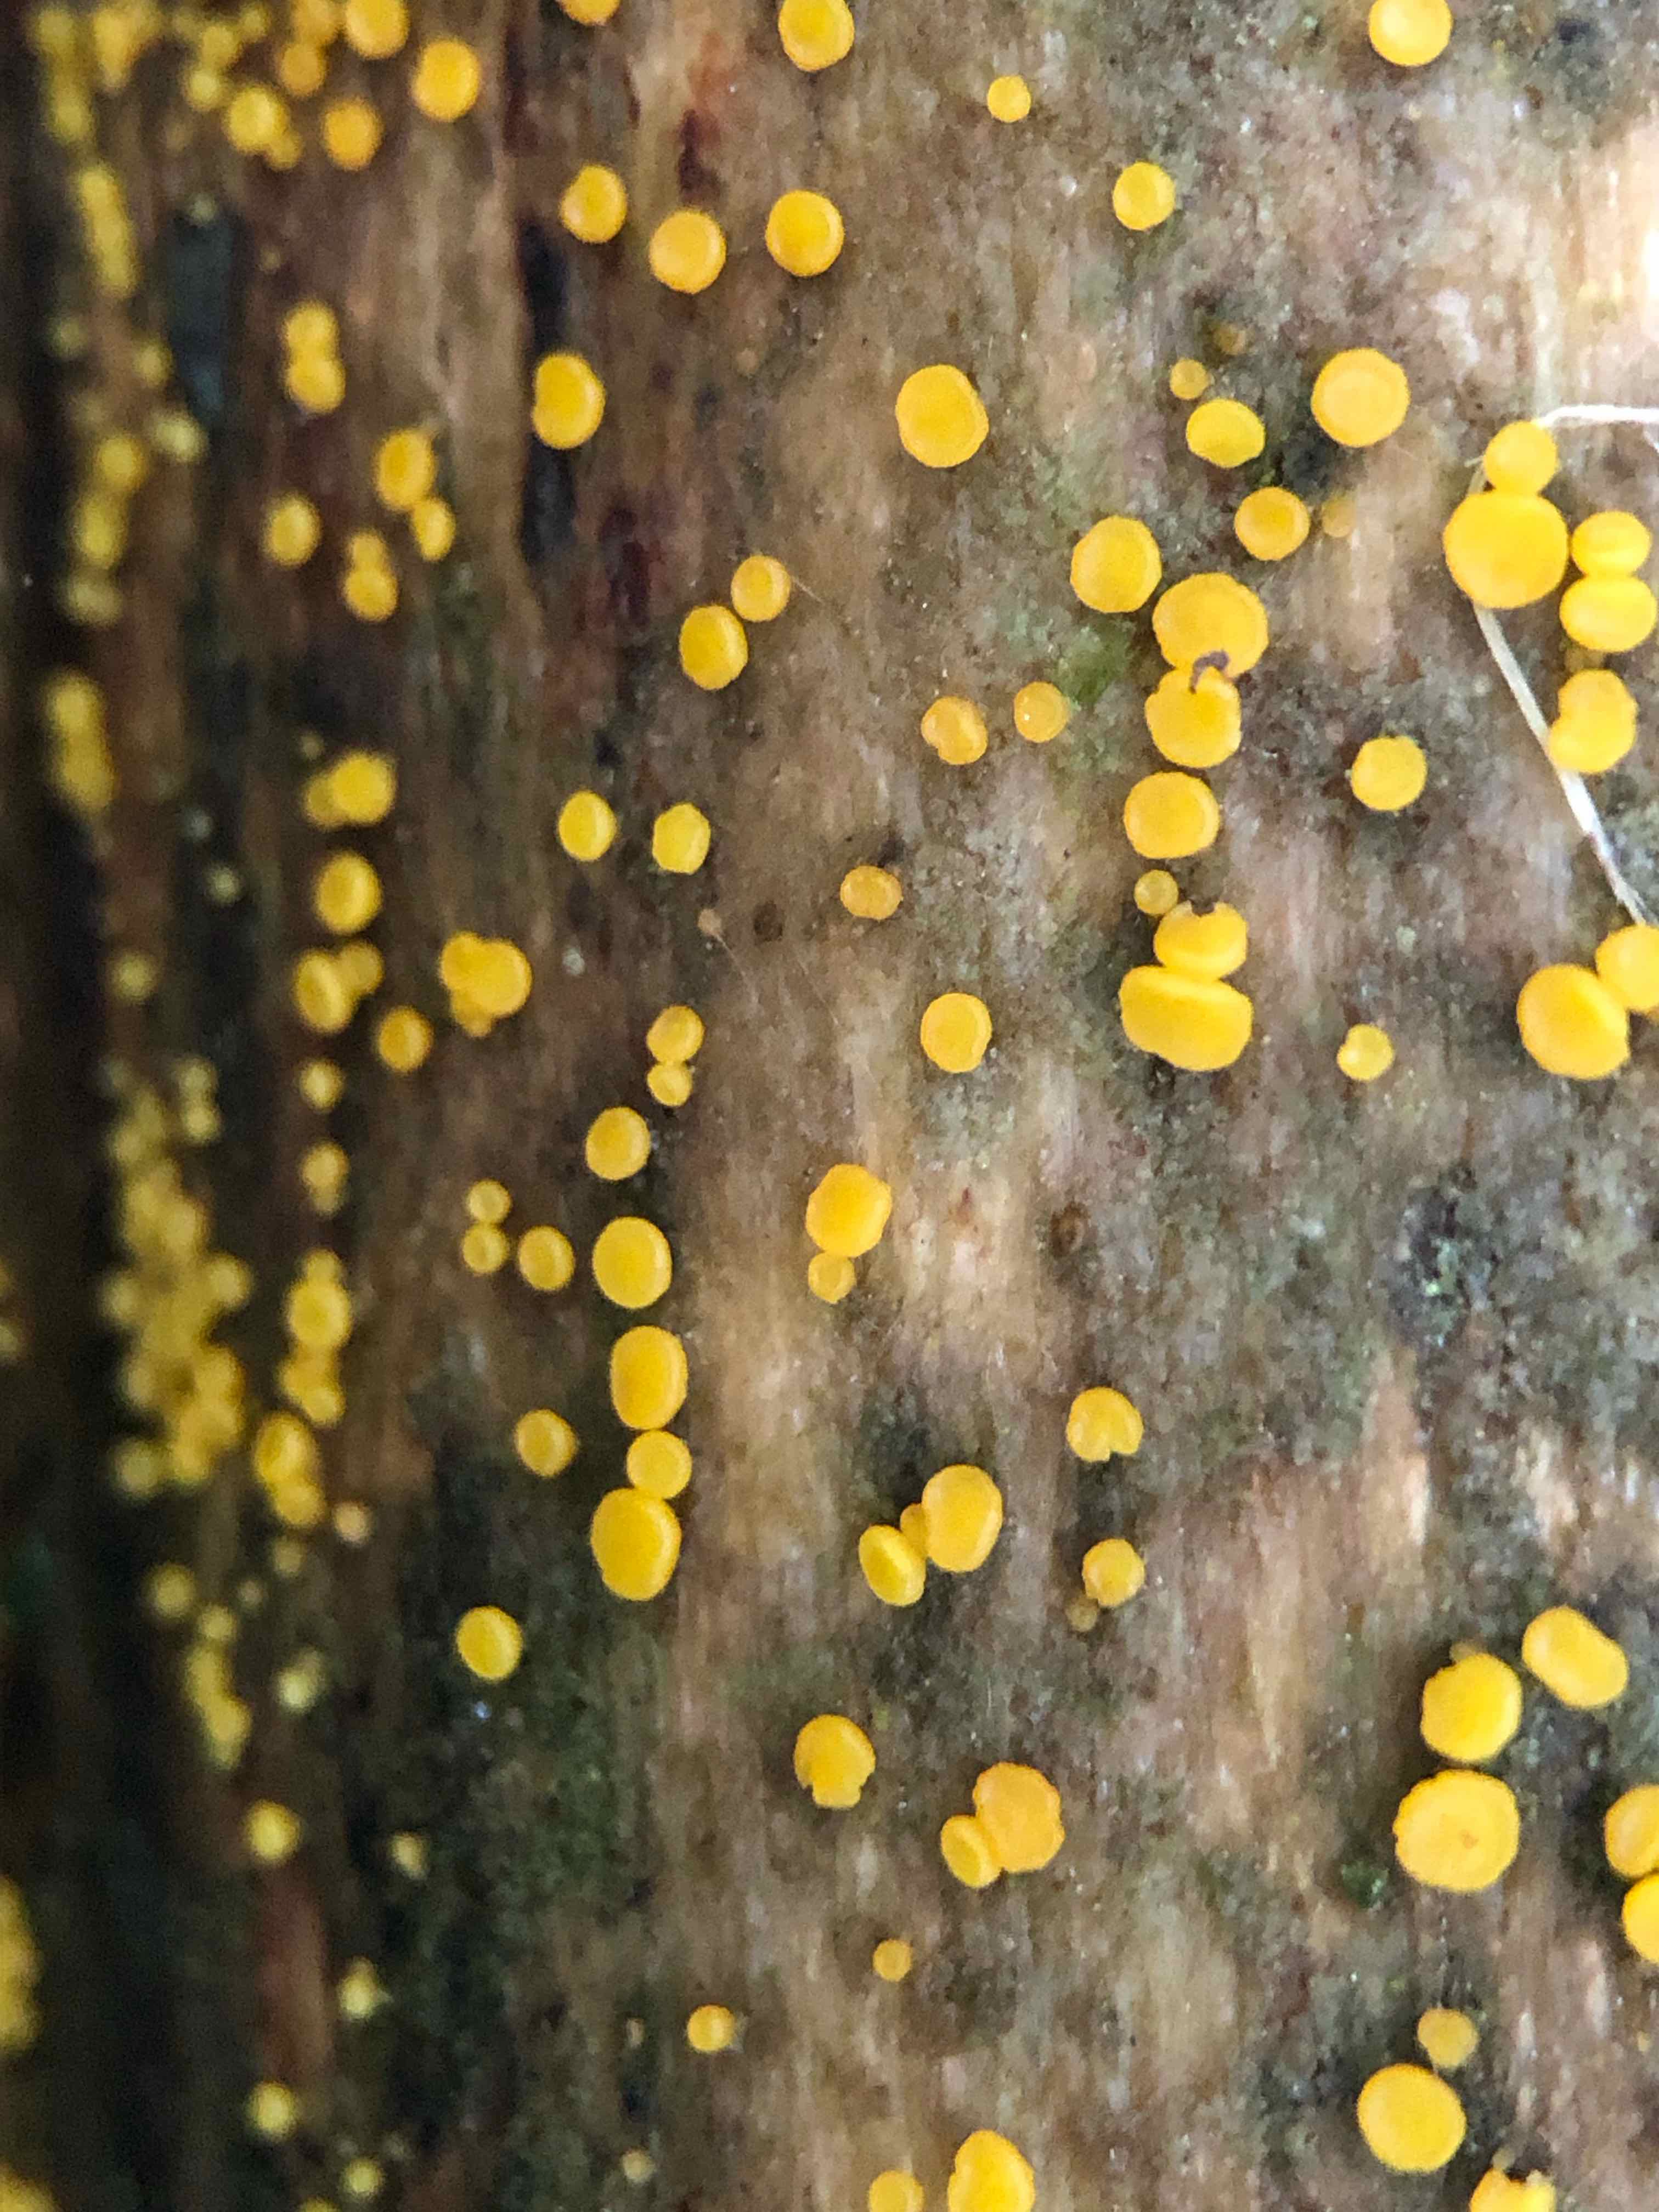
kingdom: Fungi
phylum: Ascomycota
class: Leotiomycetes
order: Helotiales
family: Pezizellaceae
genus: Calycina
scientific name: Calycina citrina
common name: almindelig gulskive
